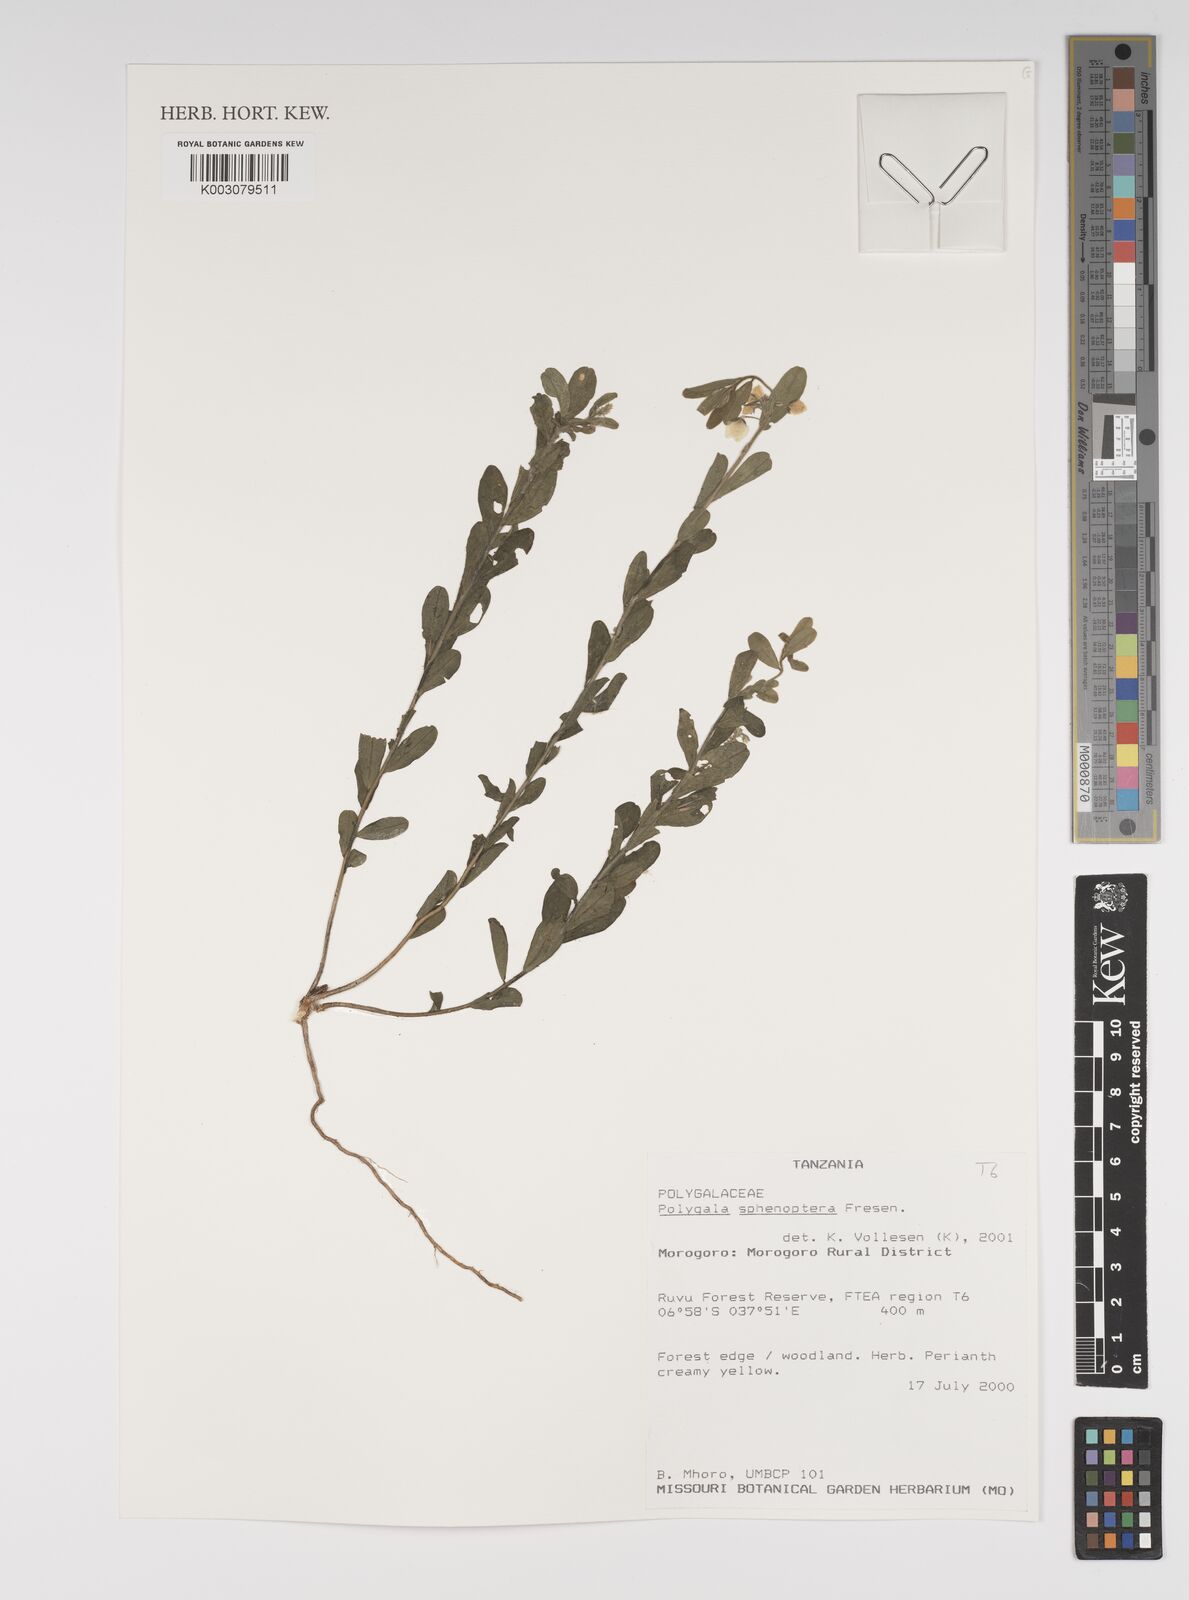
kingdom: Plantae
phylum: Tracheophyta
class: Magnoliopsida
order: Fabales
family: Polygalaceae
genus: Polygala
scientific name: Polygala sphenoptera
